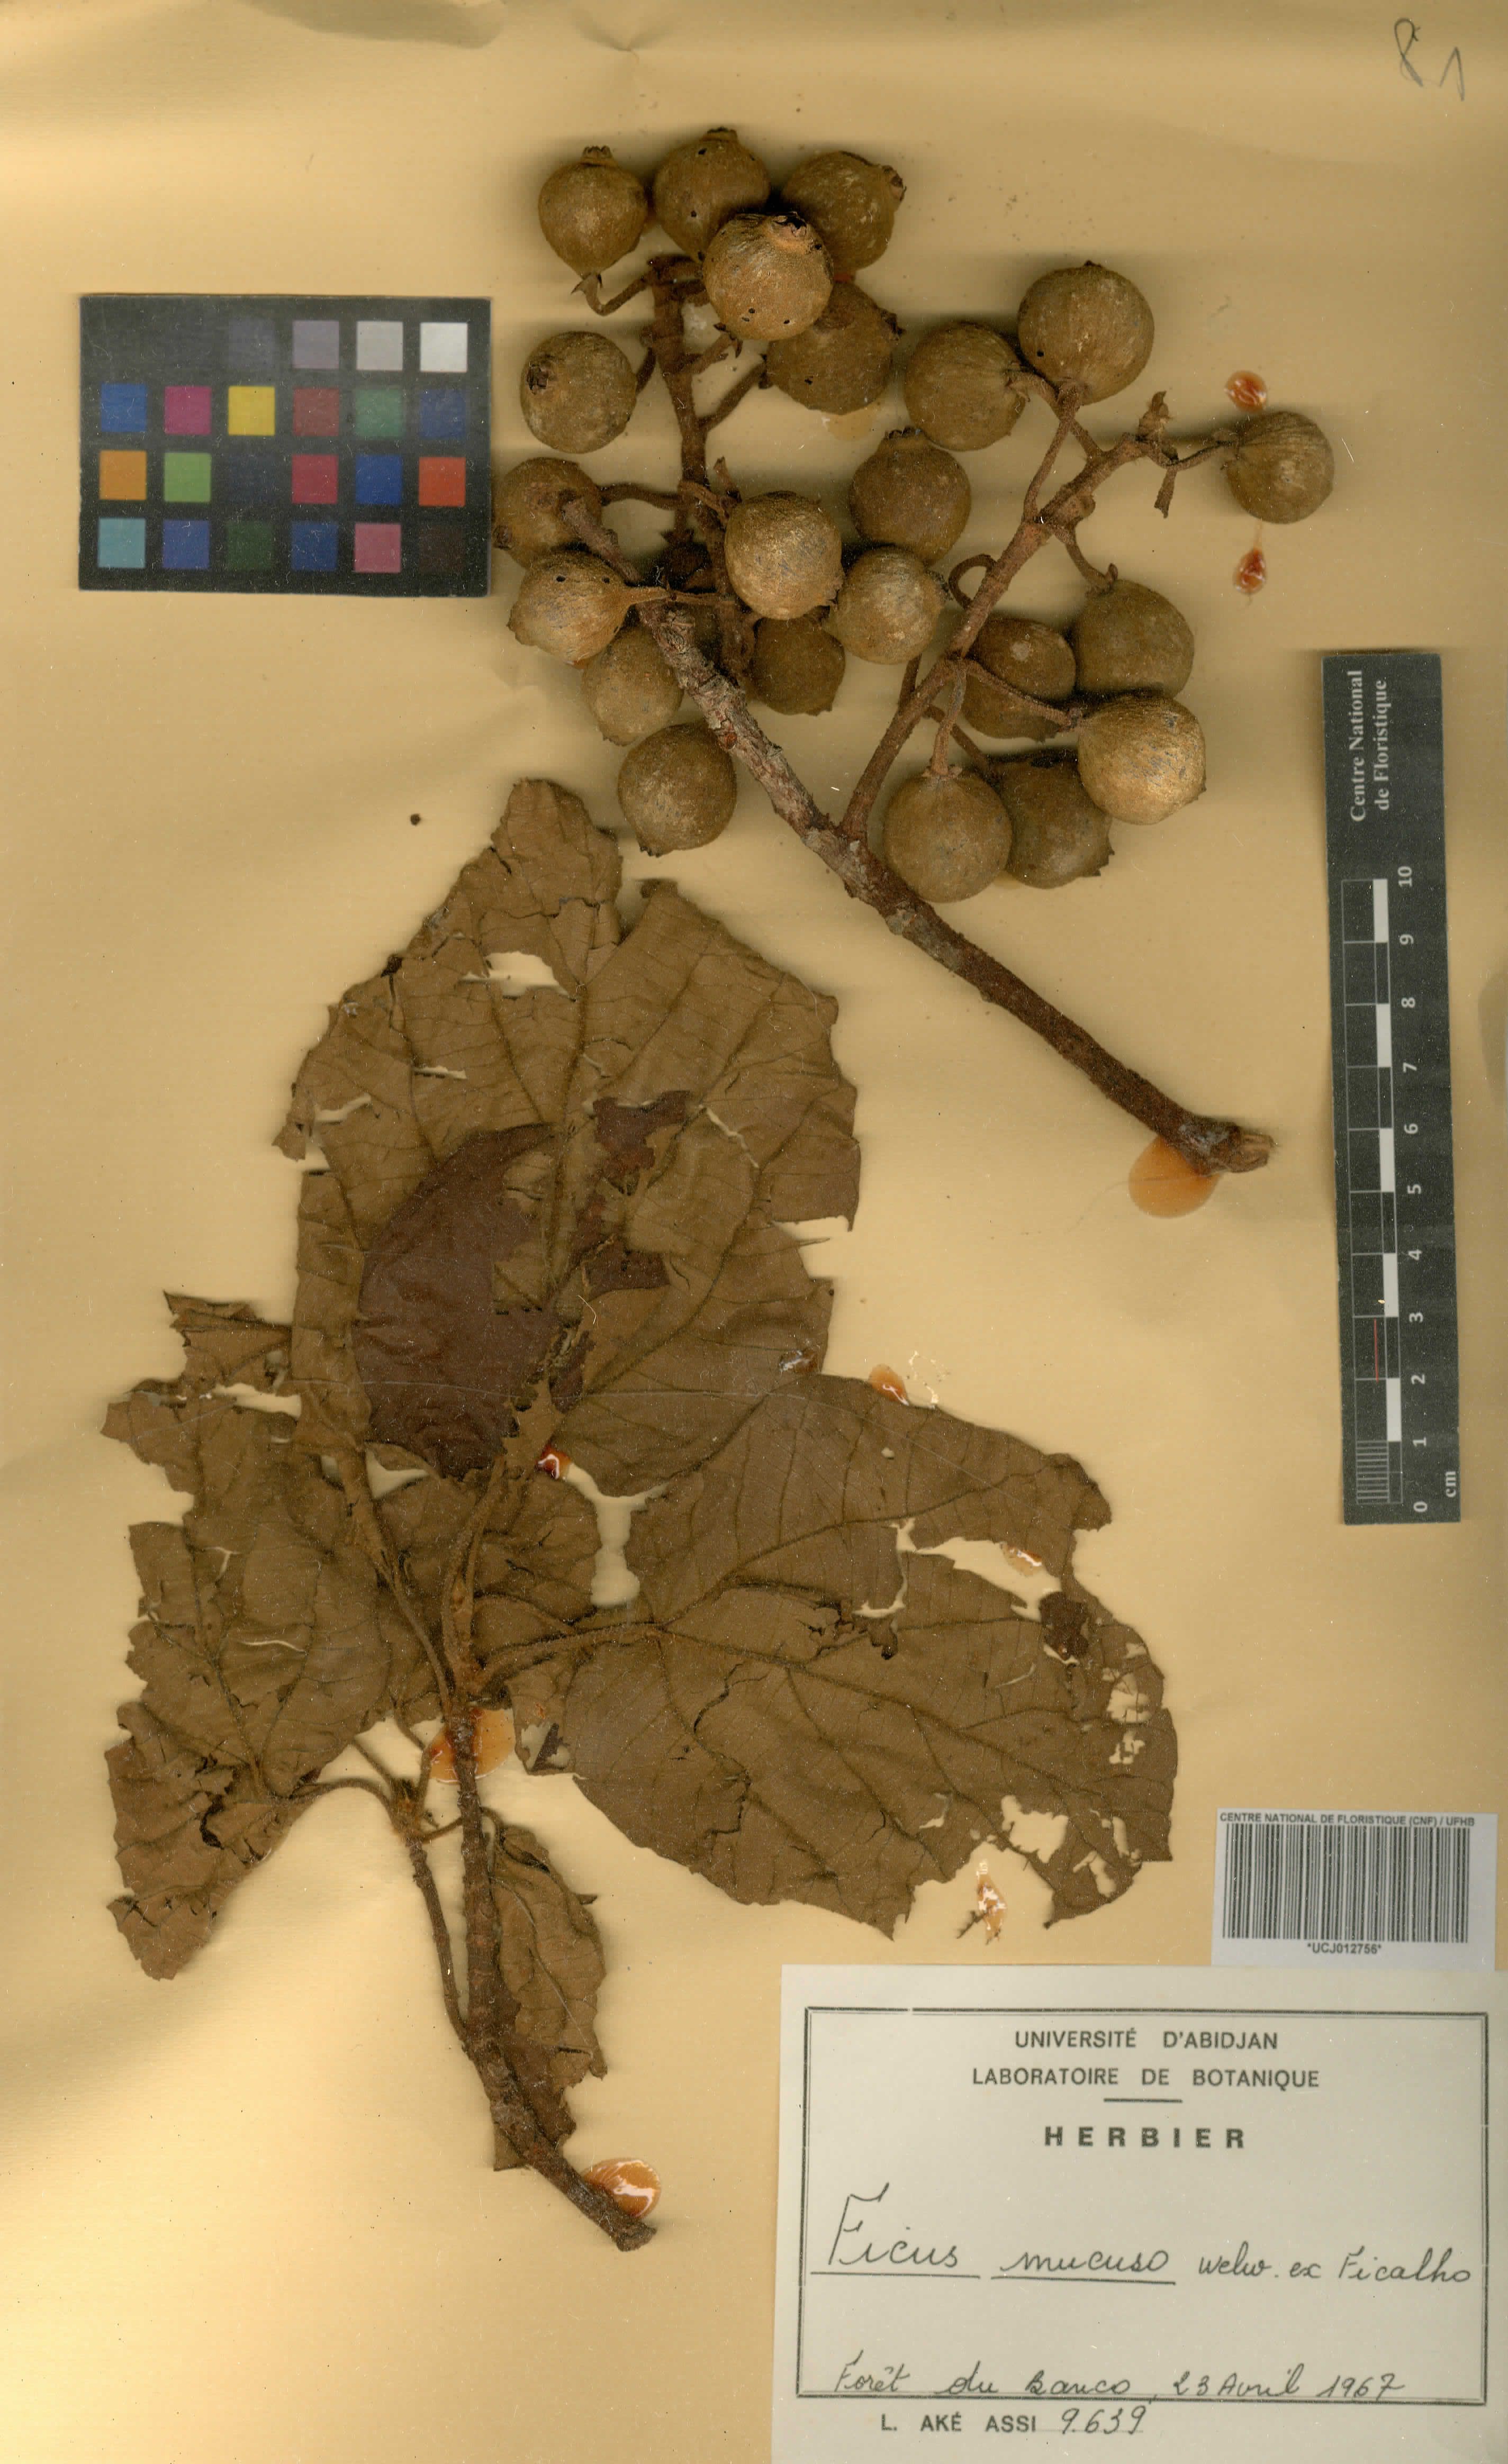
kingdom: Plantae
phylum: Tracheophyta
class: Magnoliopsida
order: Rosales
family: Moraceae
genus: Ficus
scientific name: Ficus mucuso
